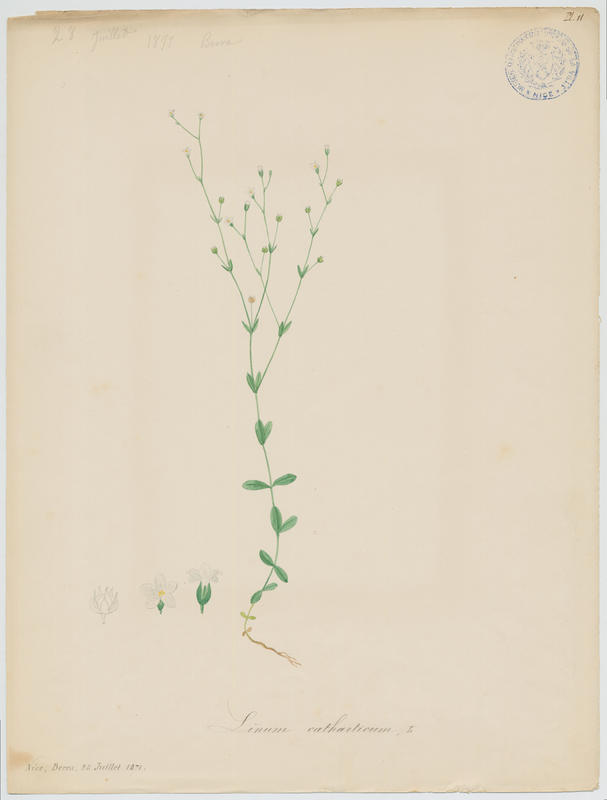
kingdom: Plantae
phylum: Tracheophyta
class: Magnoliopsida
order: Malpighiales
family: Linaceae
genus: Linum
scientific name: Linum catharticum
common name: Fairy flax
